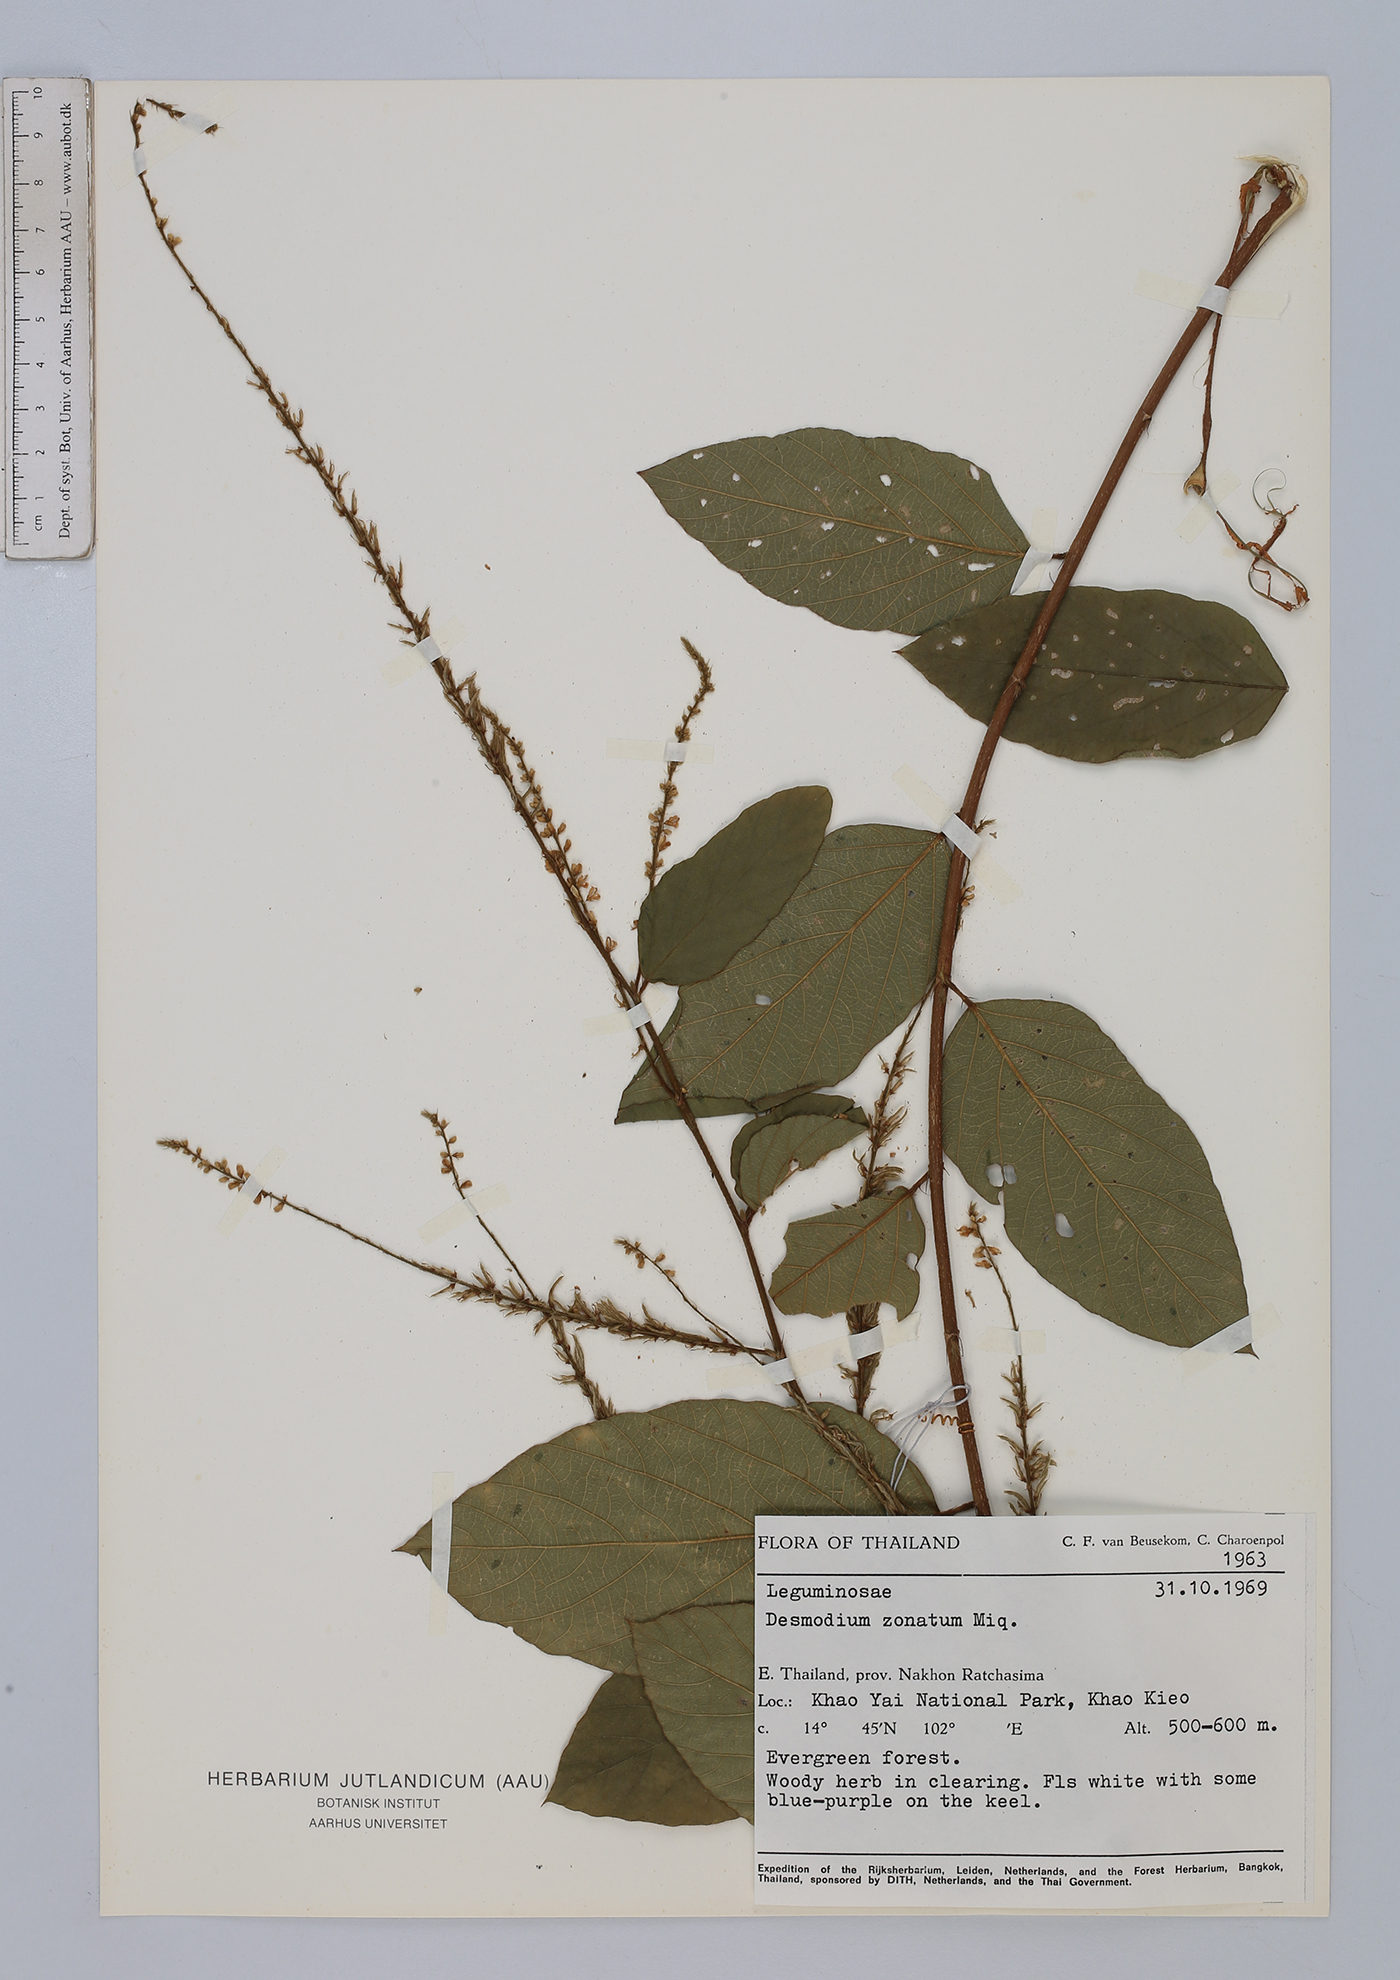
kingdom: Plantae
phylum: Tracheophyta
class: Magnoliopsida
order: Fabales
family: Fabaceae
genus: Sohmaea
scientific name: Sohmaea zonata
